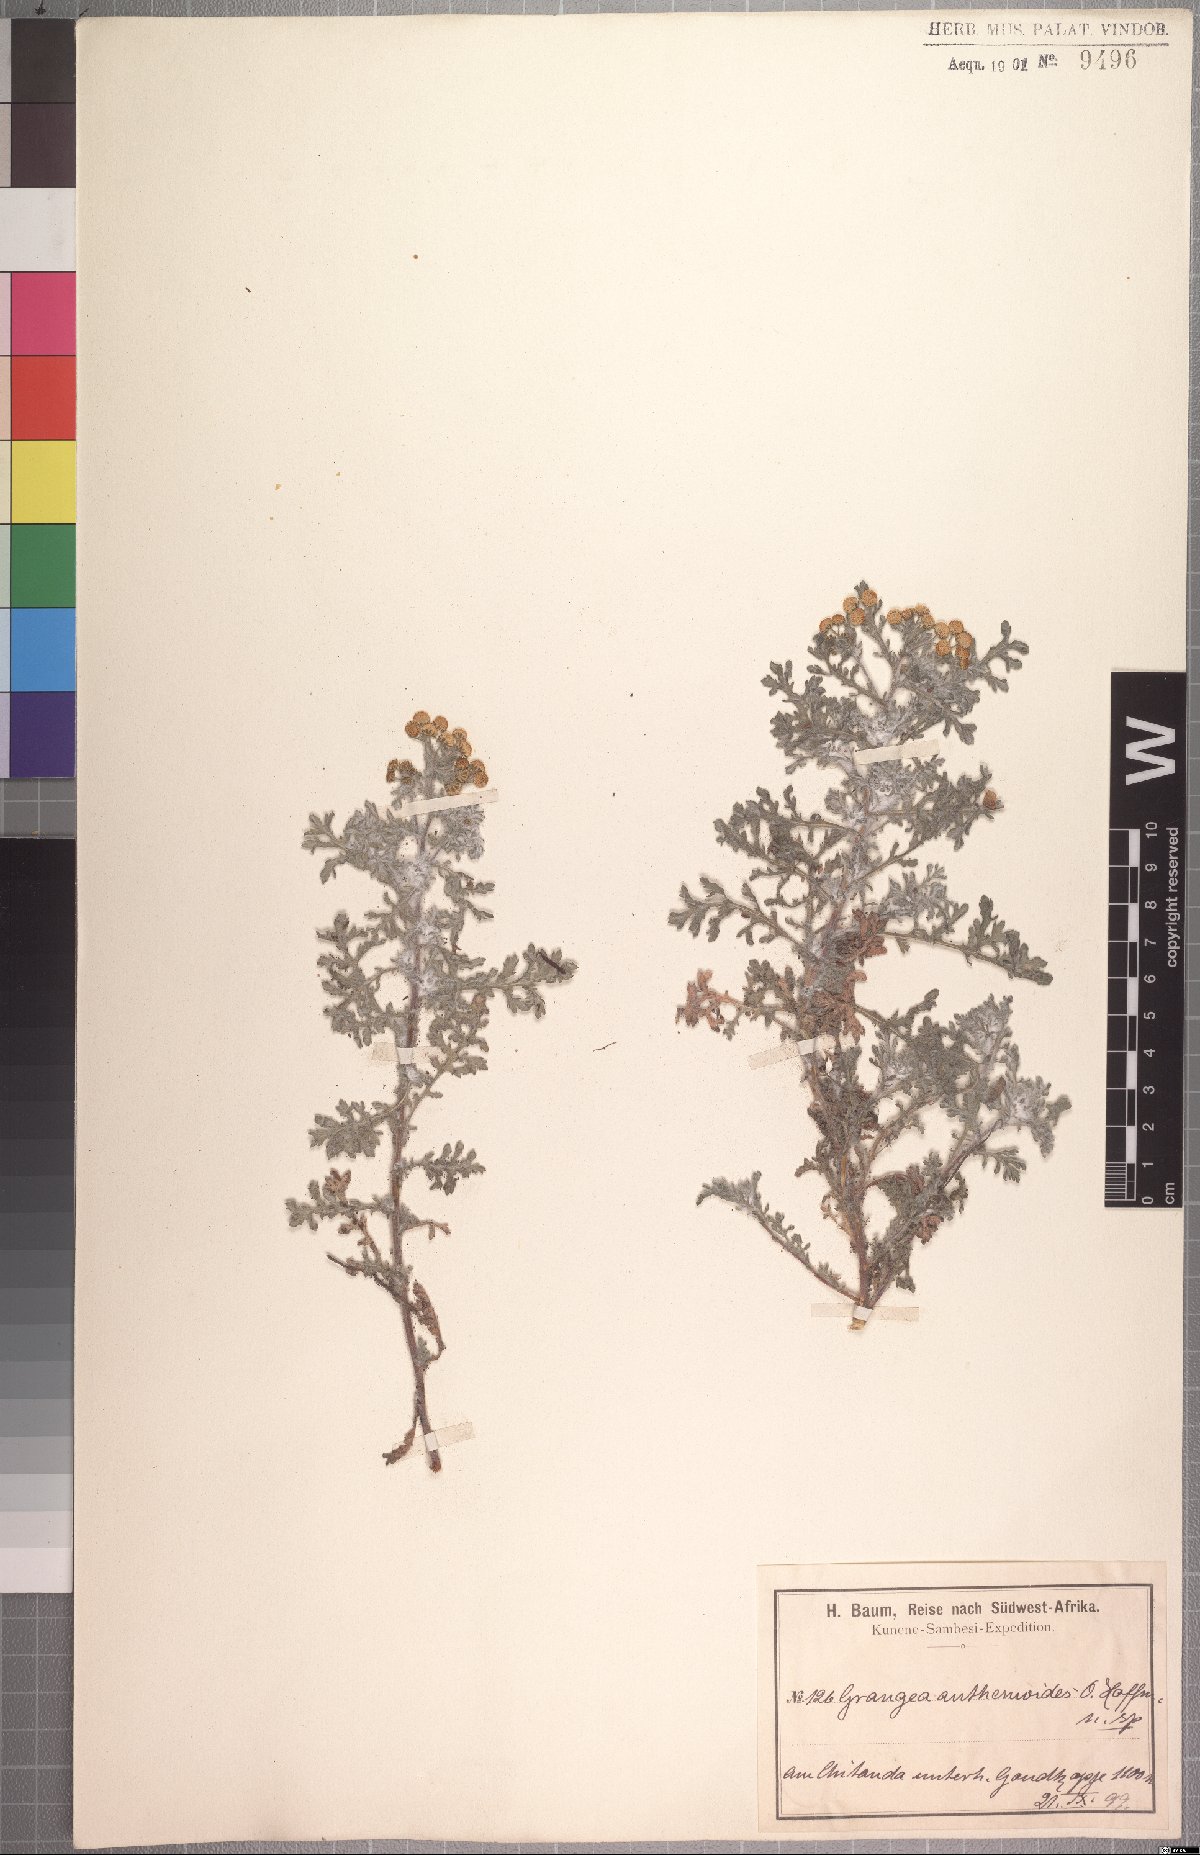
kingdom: Plantae
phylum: Tracheophyta
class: Magnoliopsida
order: Asterales
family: Asteraceae
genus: Grangea
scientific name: Grangea anthemoides
